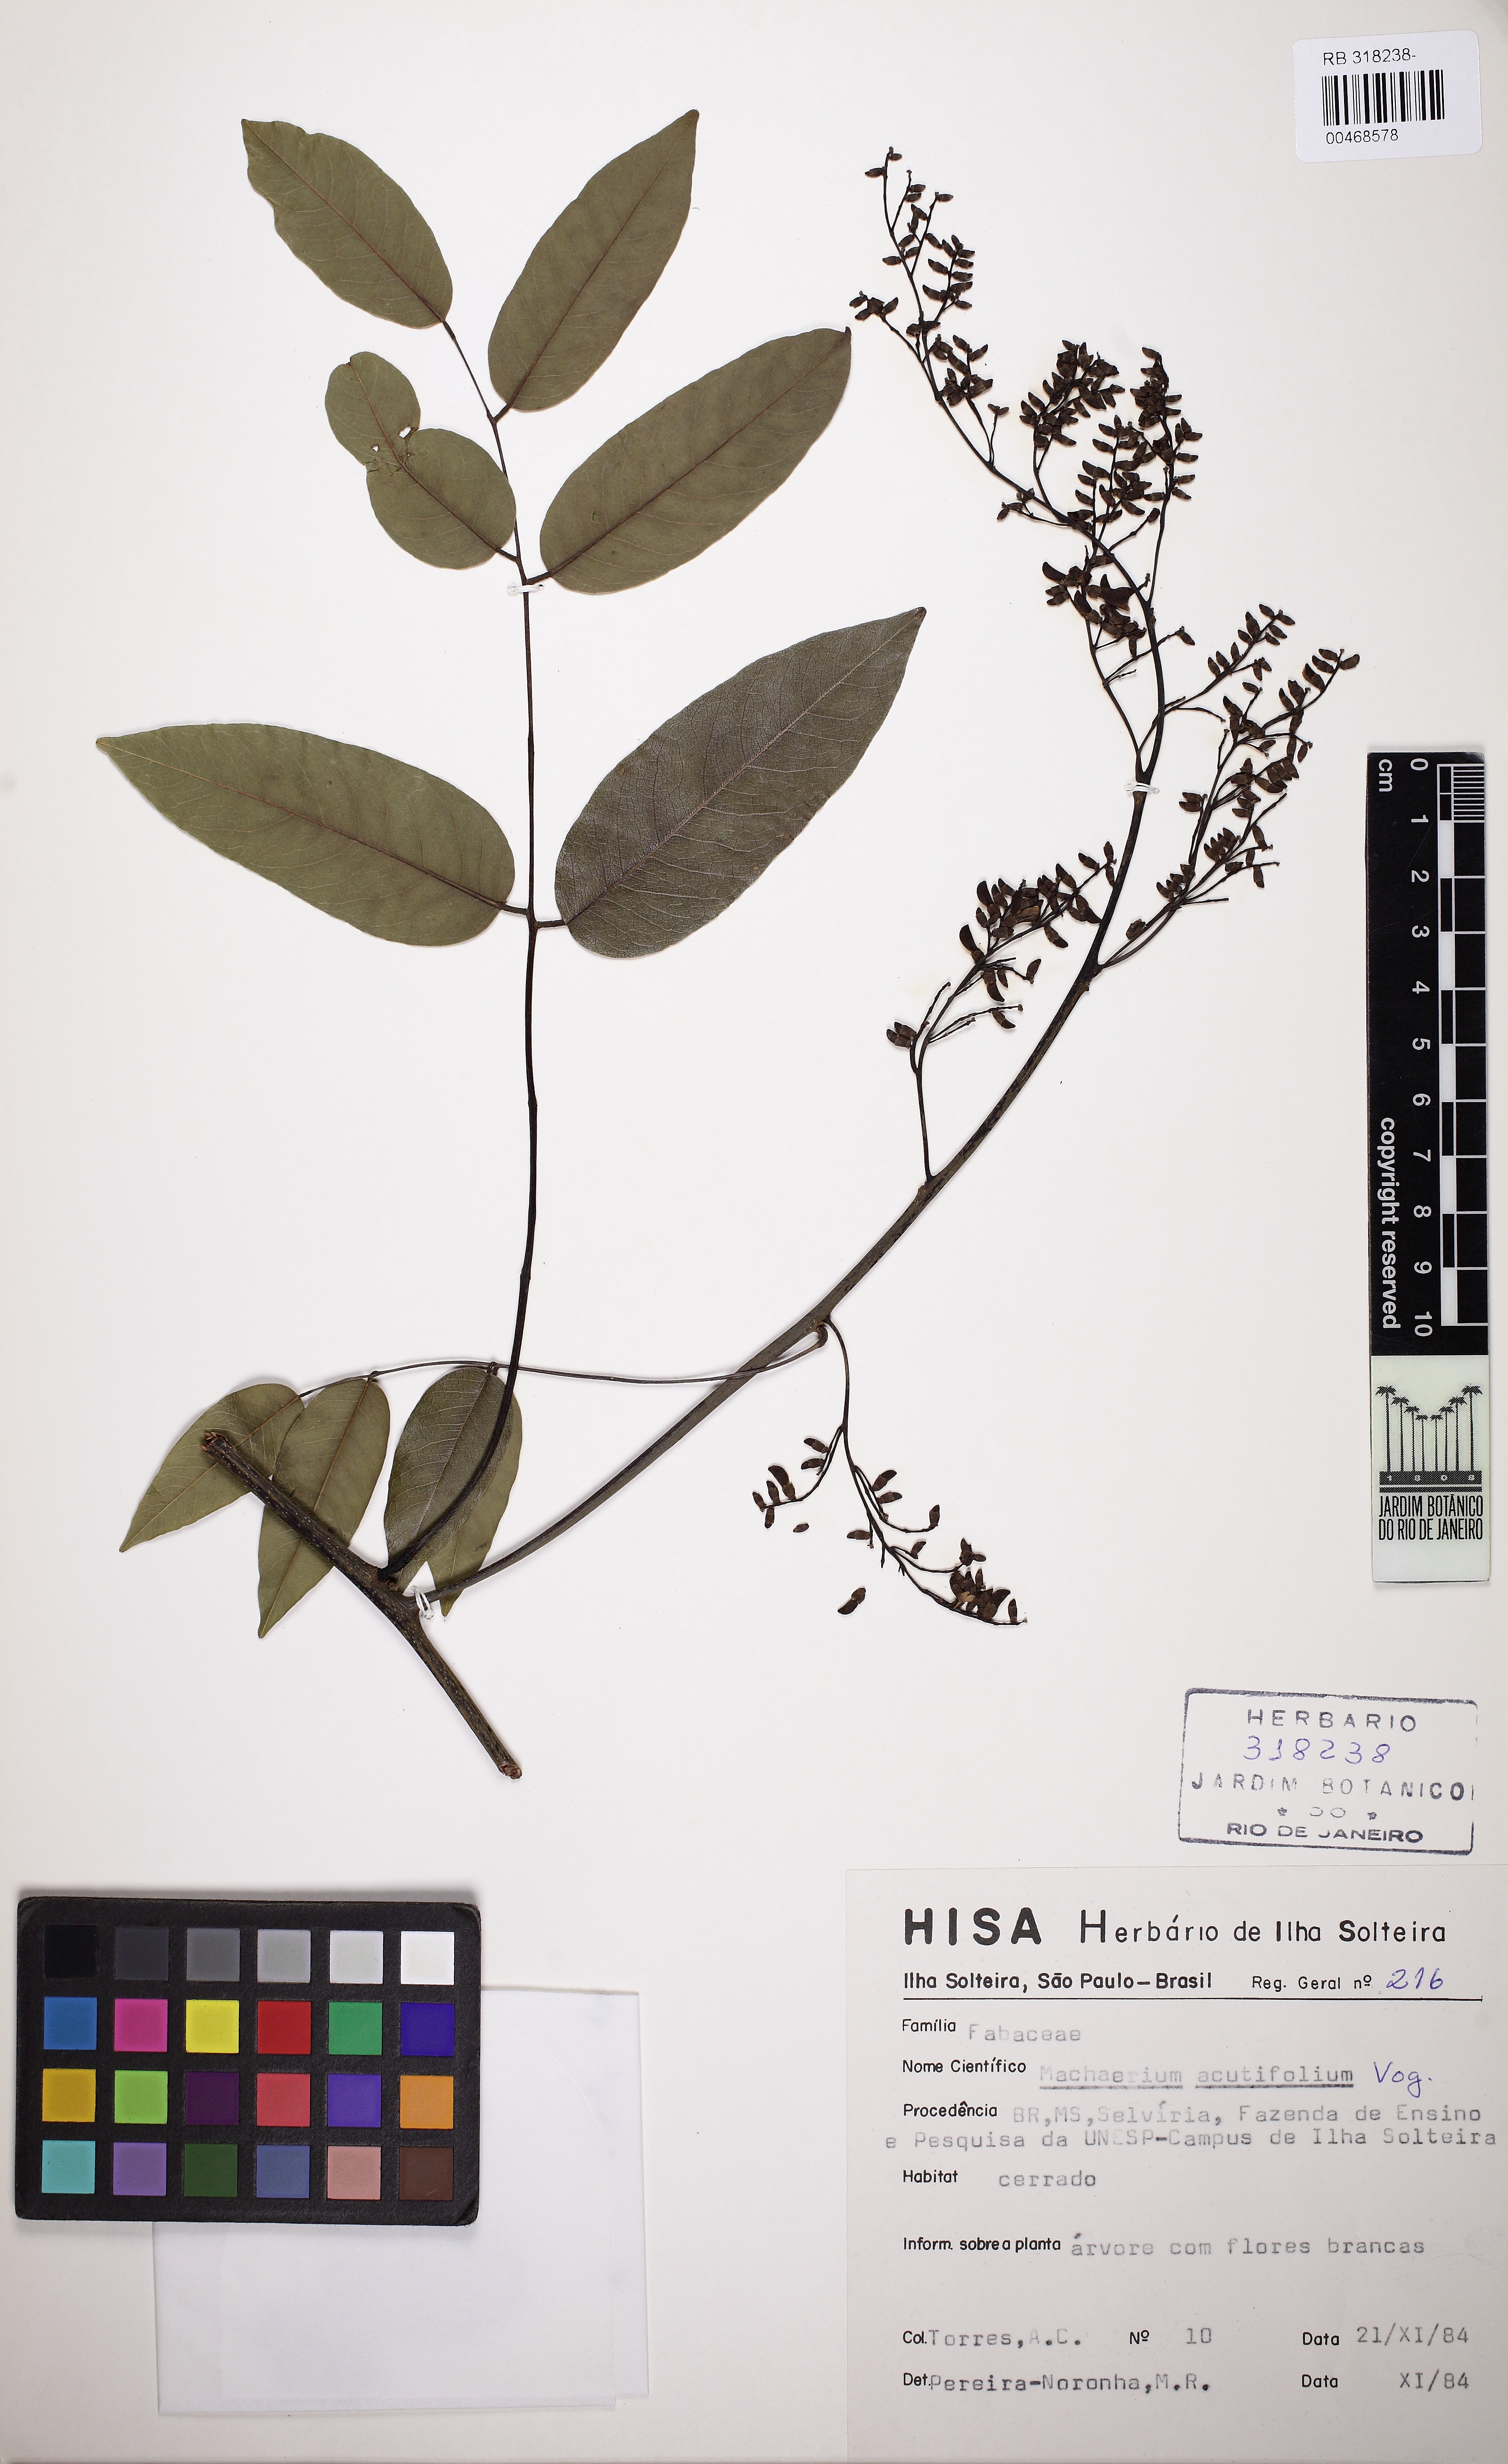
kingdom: Plantae
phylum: Tracheophyta
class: Magnoliopsida
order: Fabales
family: Fabaceae
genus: Machaerium
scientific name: Machaerium acutifolium
